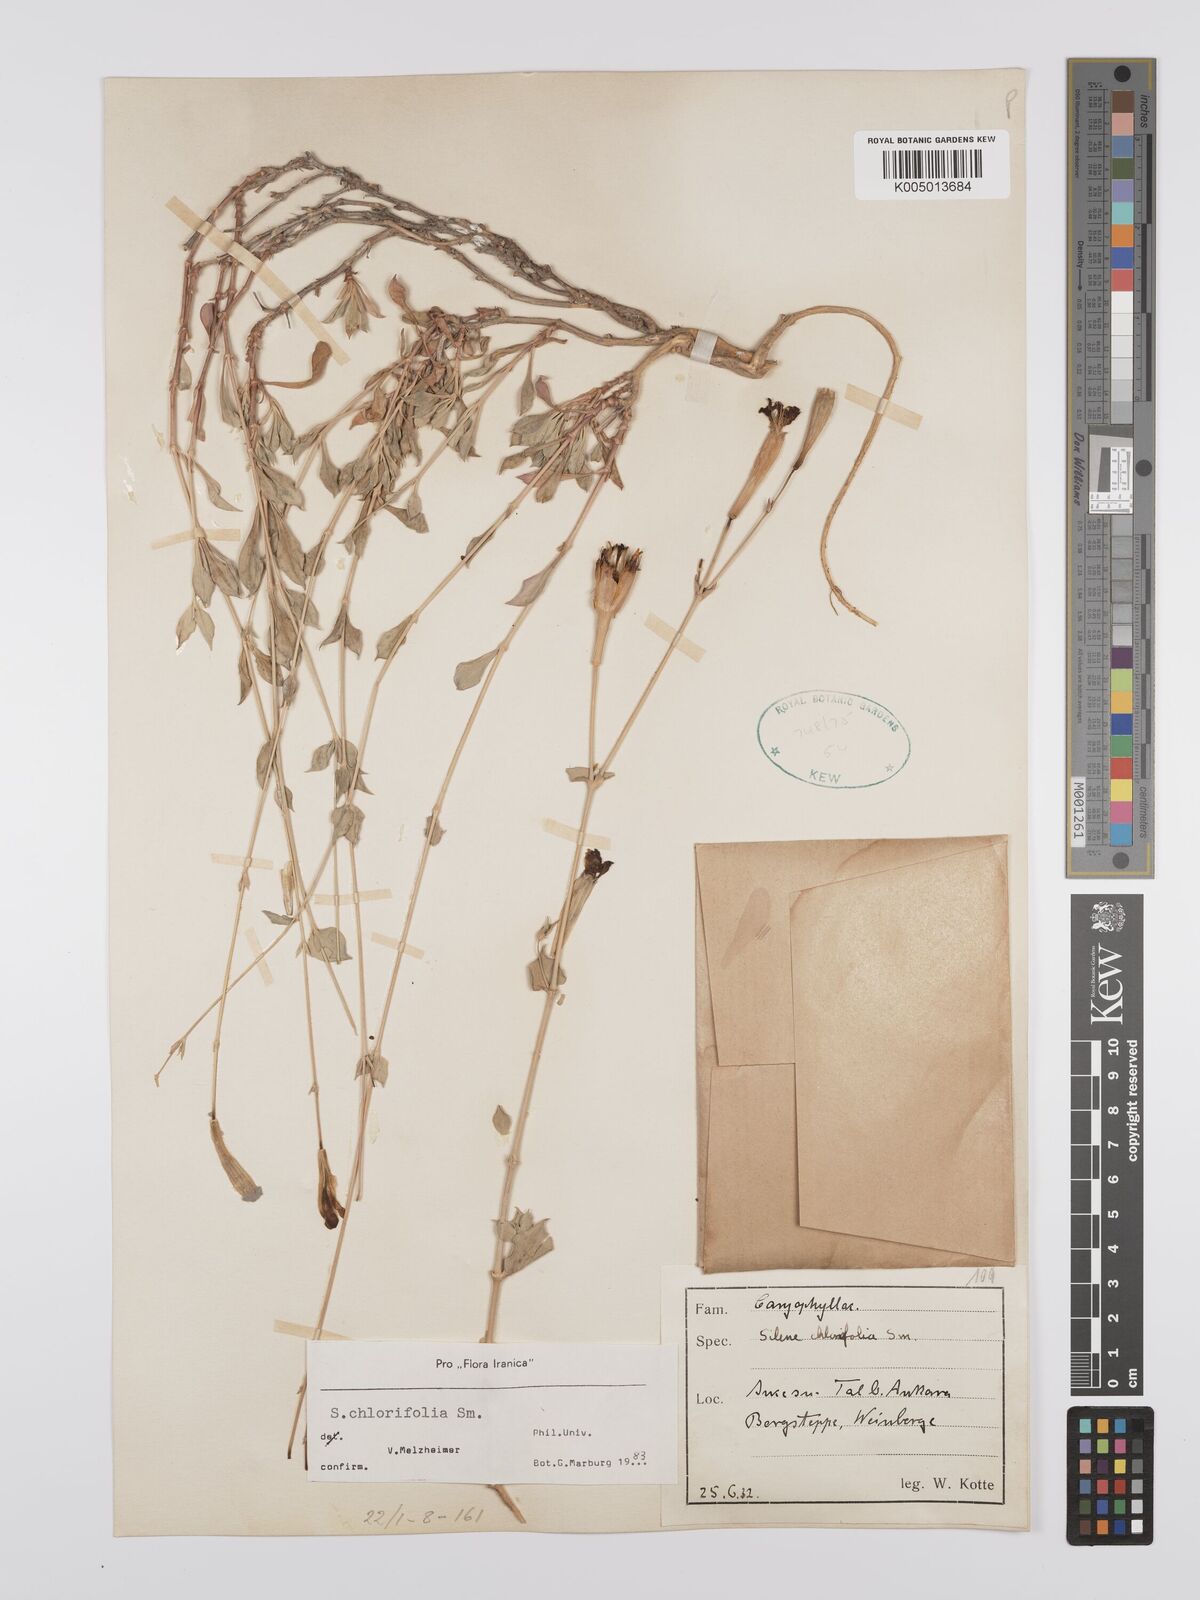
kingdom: Plantae
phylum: Tracheophyta
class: Magnoliopsida
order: Caryophyllales
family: Caryophyllaceae
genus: Silene
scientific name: Silene chlorifolia
